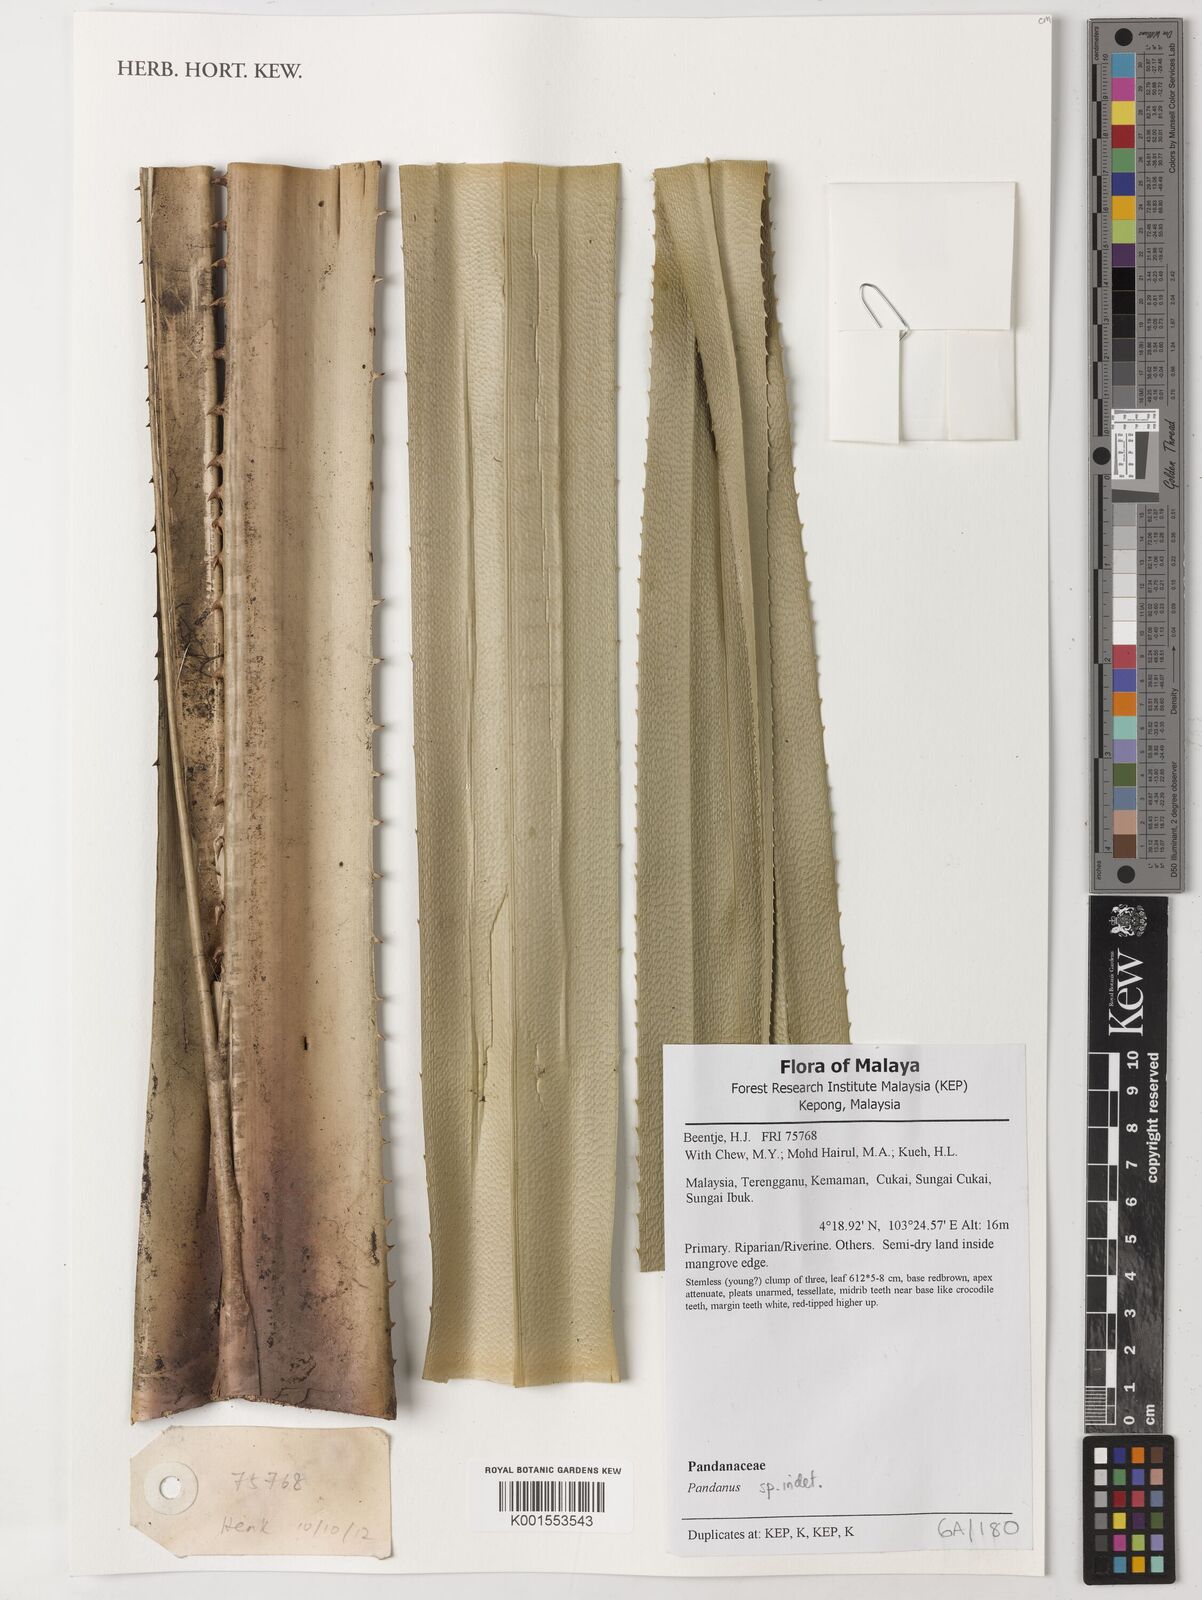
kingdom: Plantae
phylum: Tracheophyta
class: Liliopsida
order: Pandanales
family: Pandanaceae
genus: Pandanus
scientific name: Pandanus
